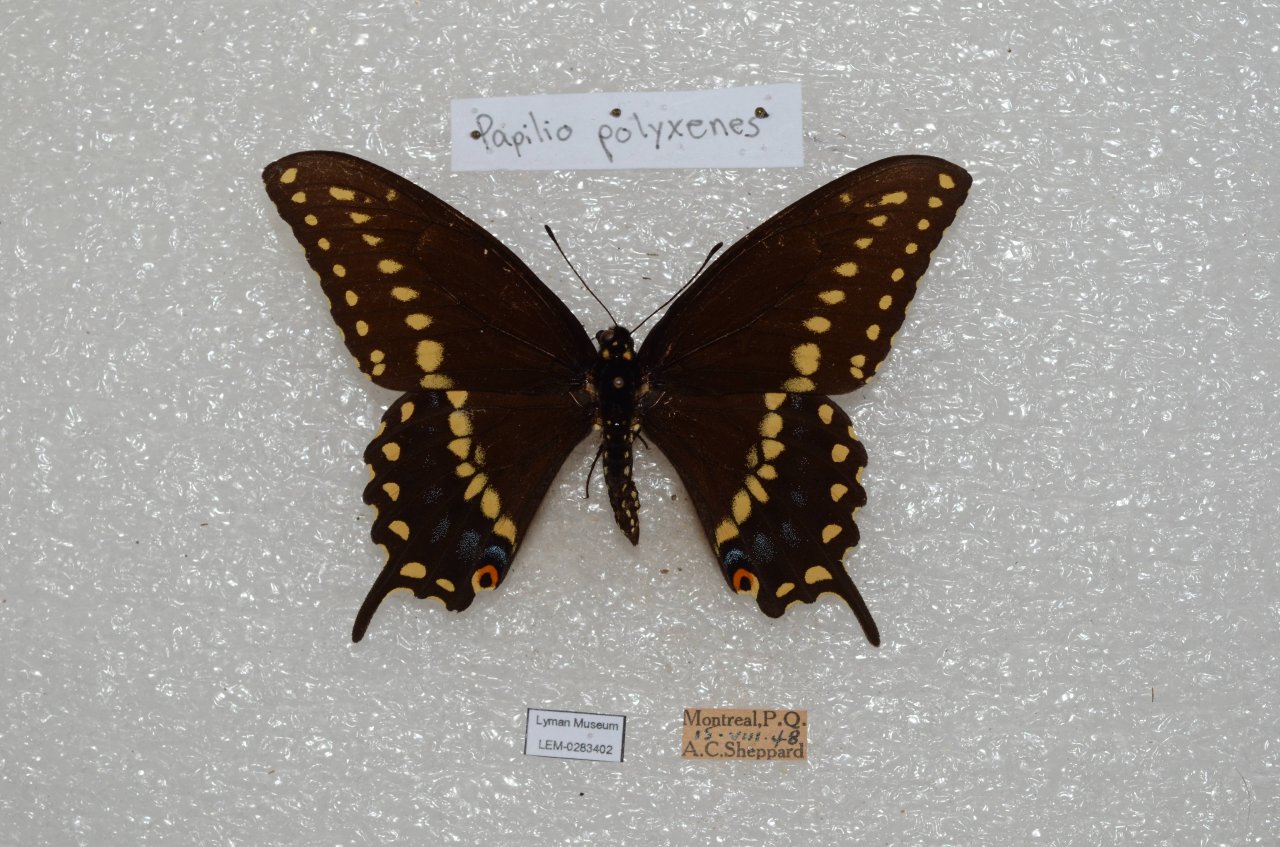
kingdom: Animalia
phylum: Arthropoda
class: Insecta
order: Lepidoptera
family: Papilionidae
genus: Papilio
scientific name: Papilio polyxenes
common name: Black Swallowtail
